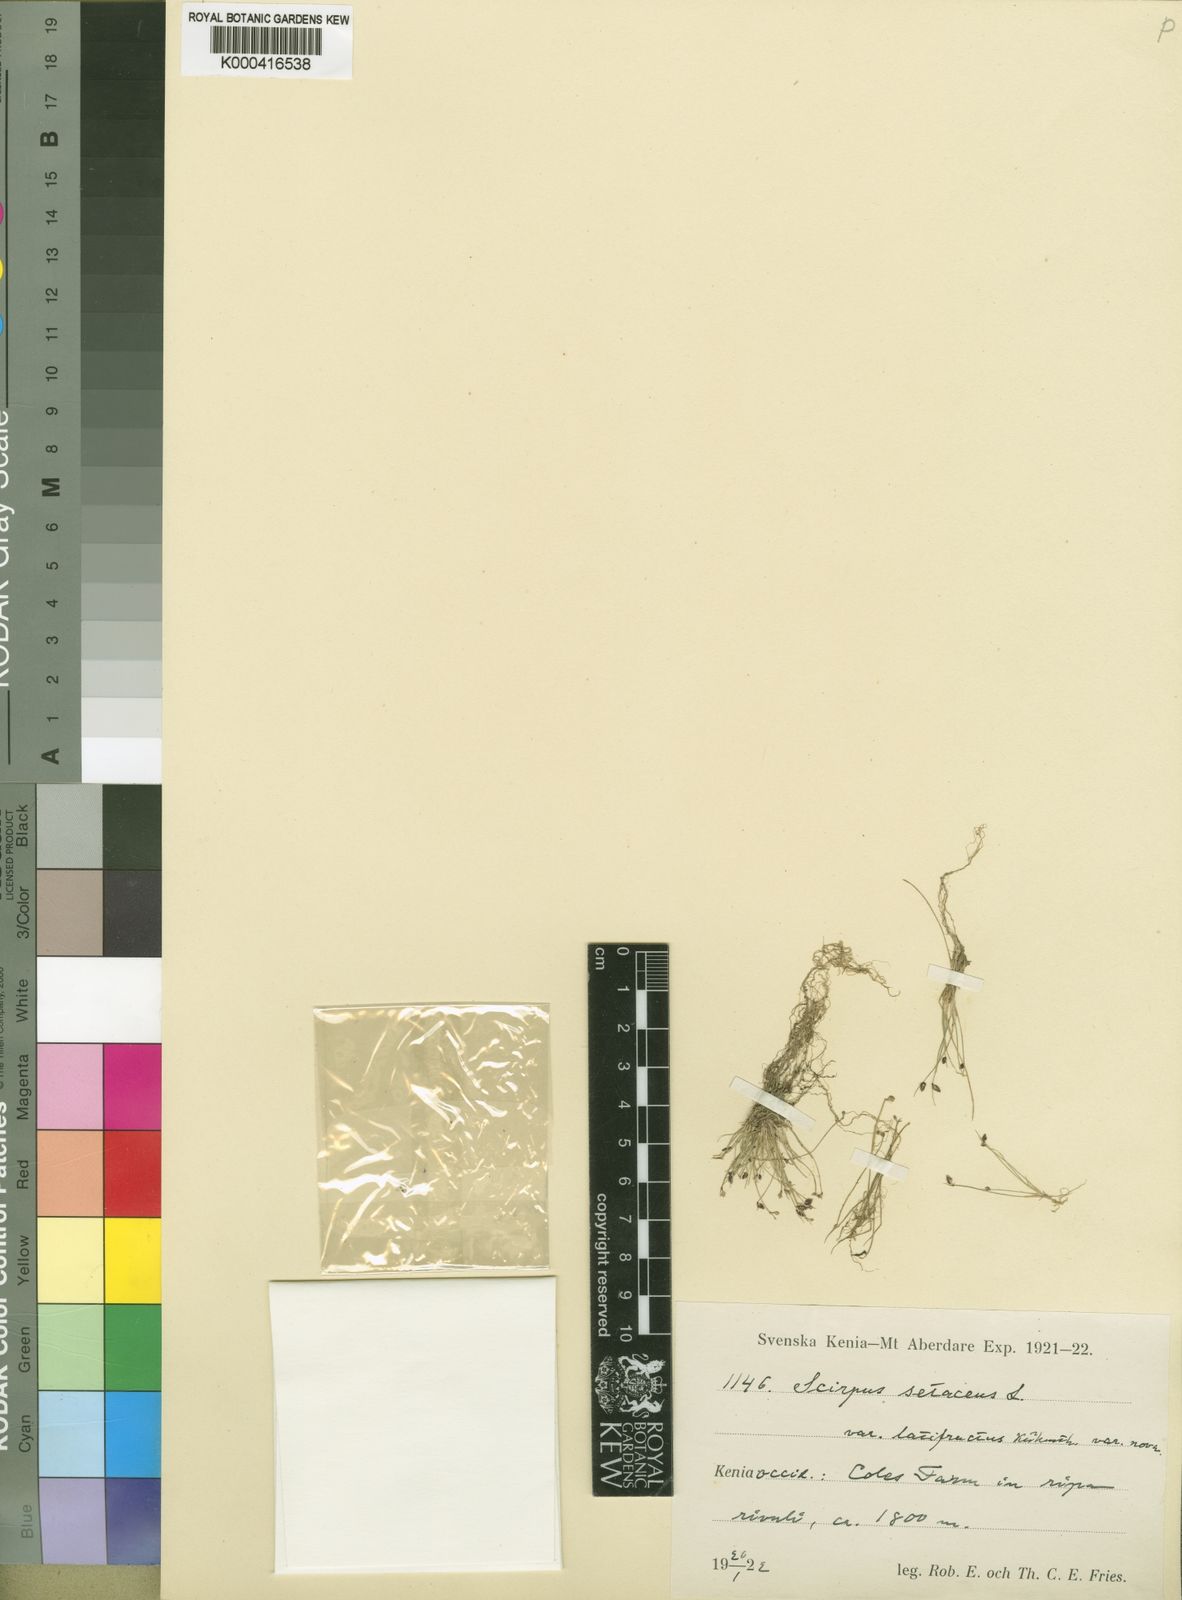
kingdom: Plantae
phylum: Tracheophyta
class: Liliopsida
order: Poales
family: Cyperaceae
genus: Isolepis
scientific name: Isolepis sepulcralis
